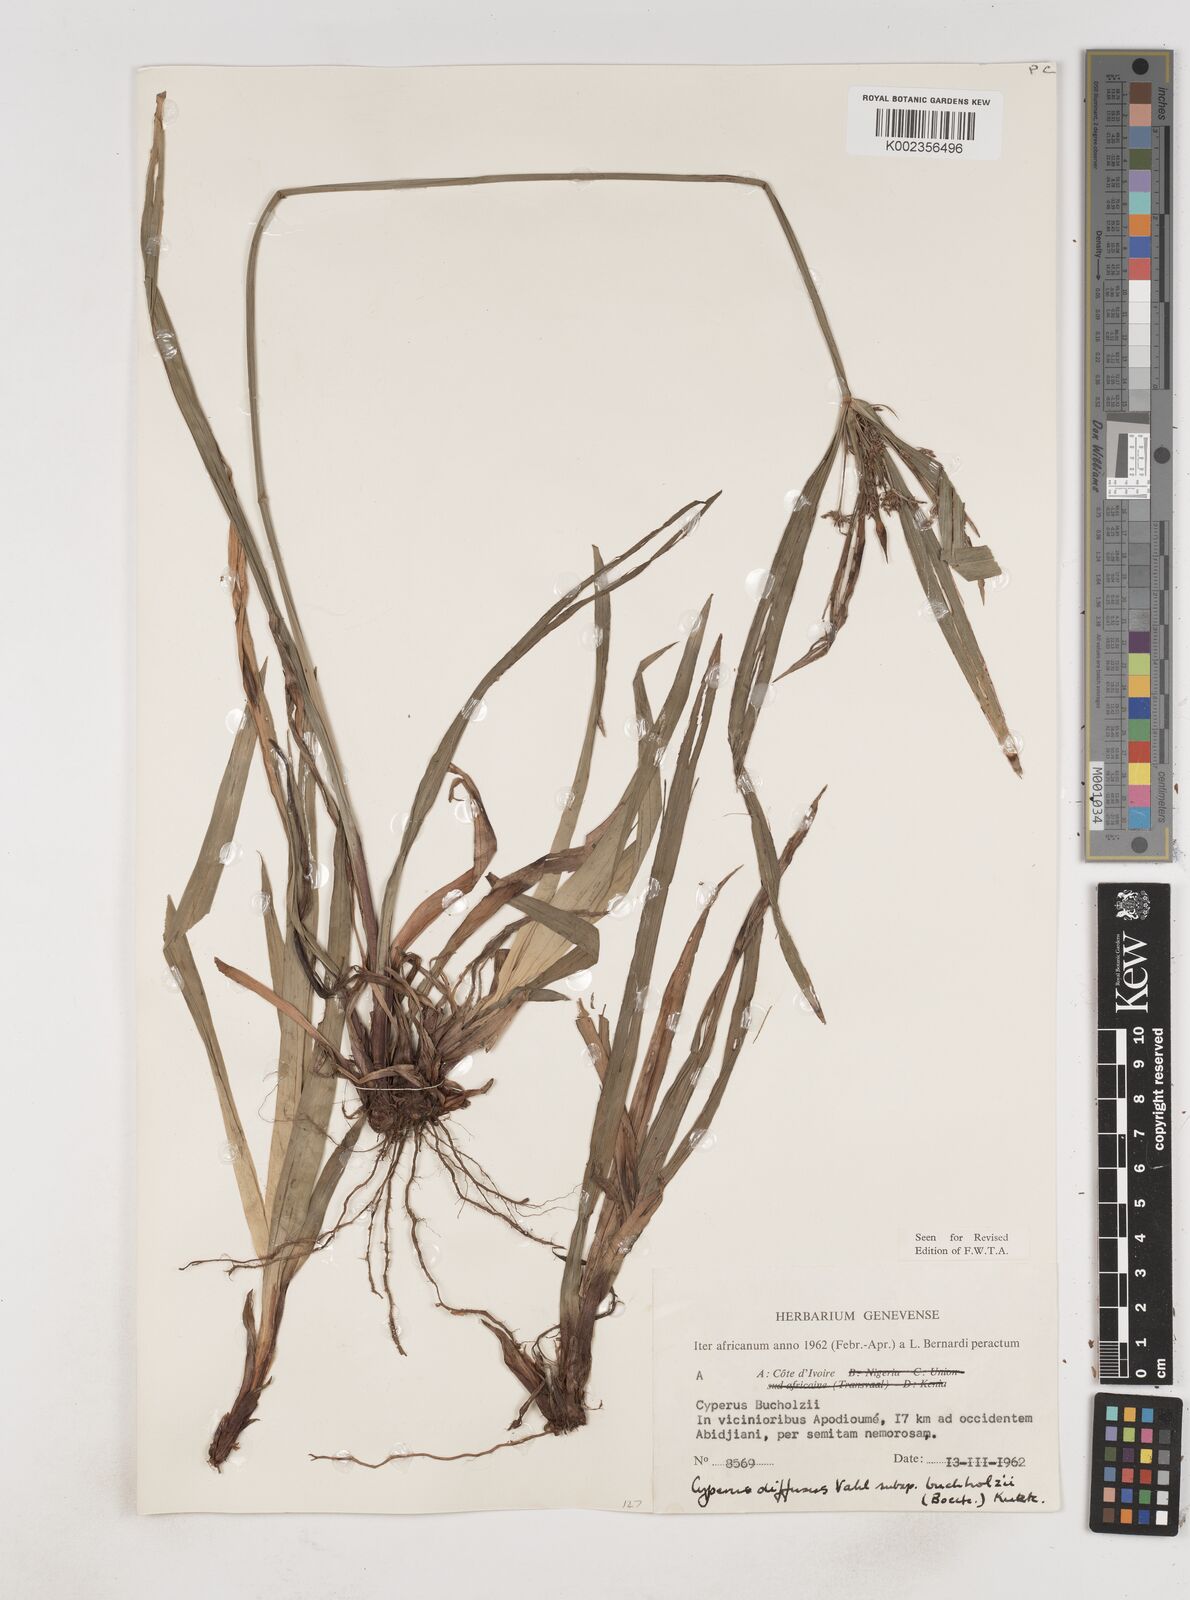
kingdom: Plantae
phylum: Tracheophyta
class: Liliopsida
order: Poales
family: Cyperaceae
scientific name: Cyperaceae
